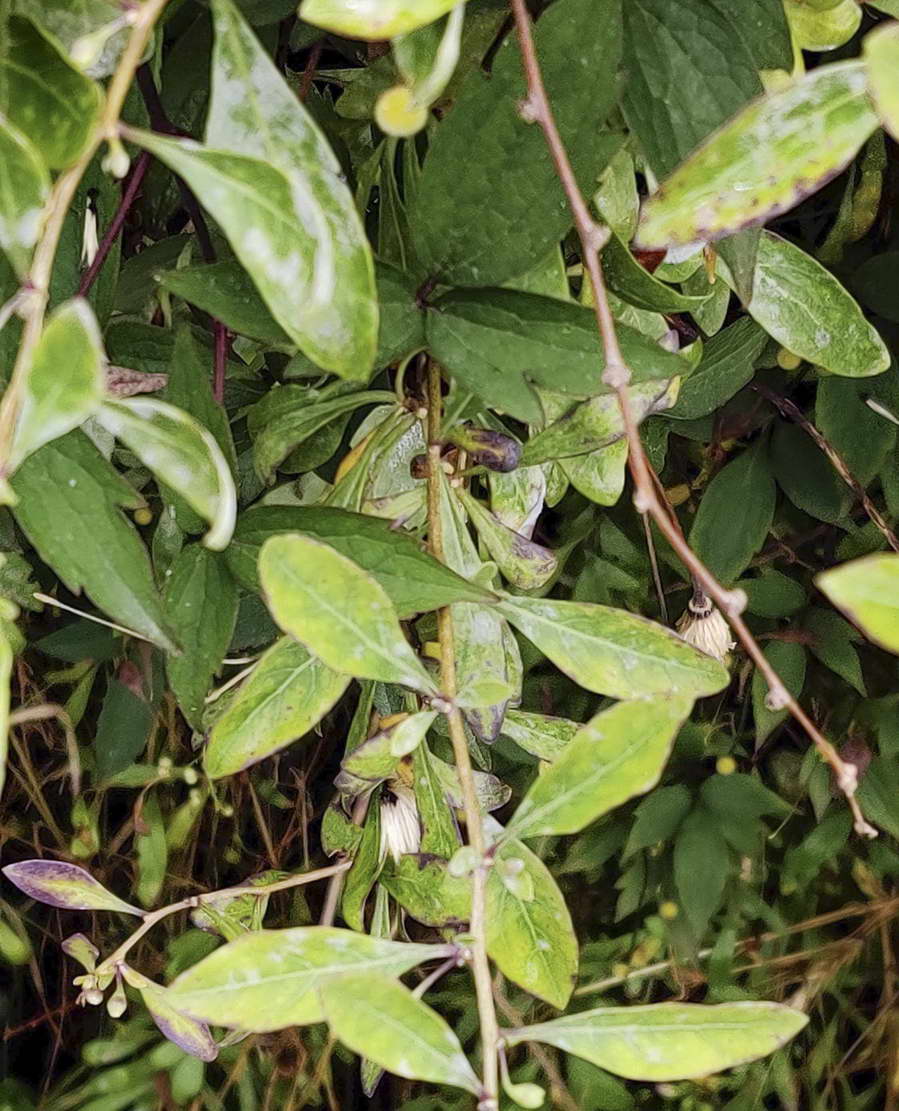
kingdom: Fungi
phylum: Ascomycota
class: Leotiomycetes
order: Helotiales
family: Erysiphaceae
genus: Erysiphe
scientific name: Erysiphe mougeotii
